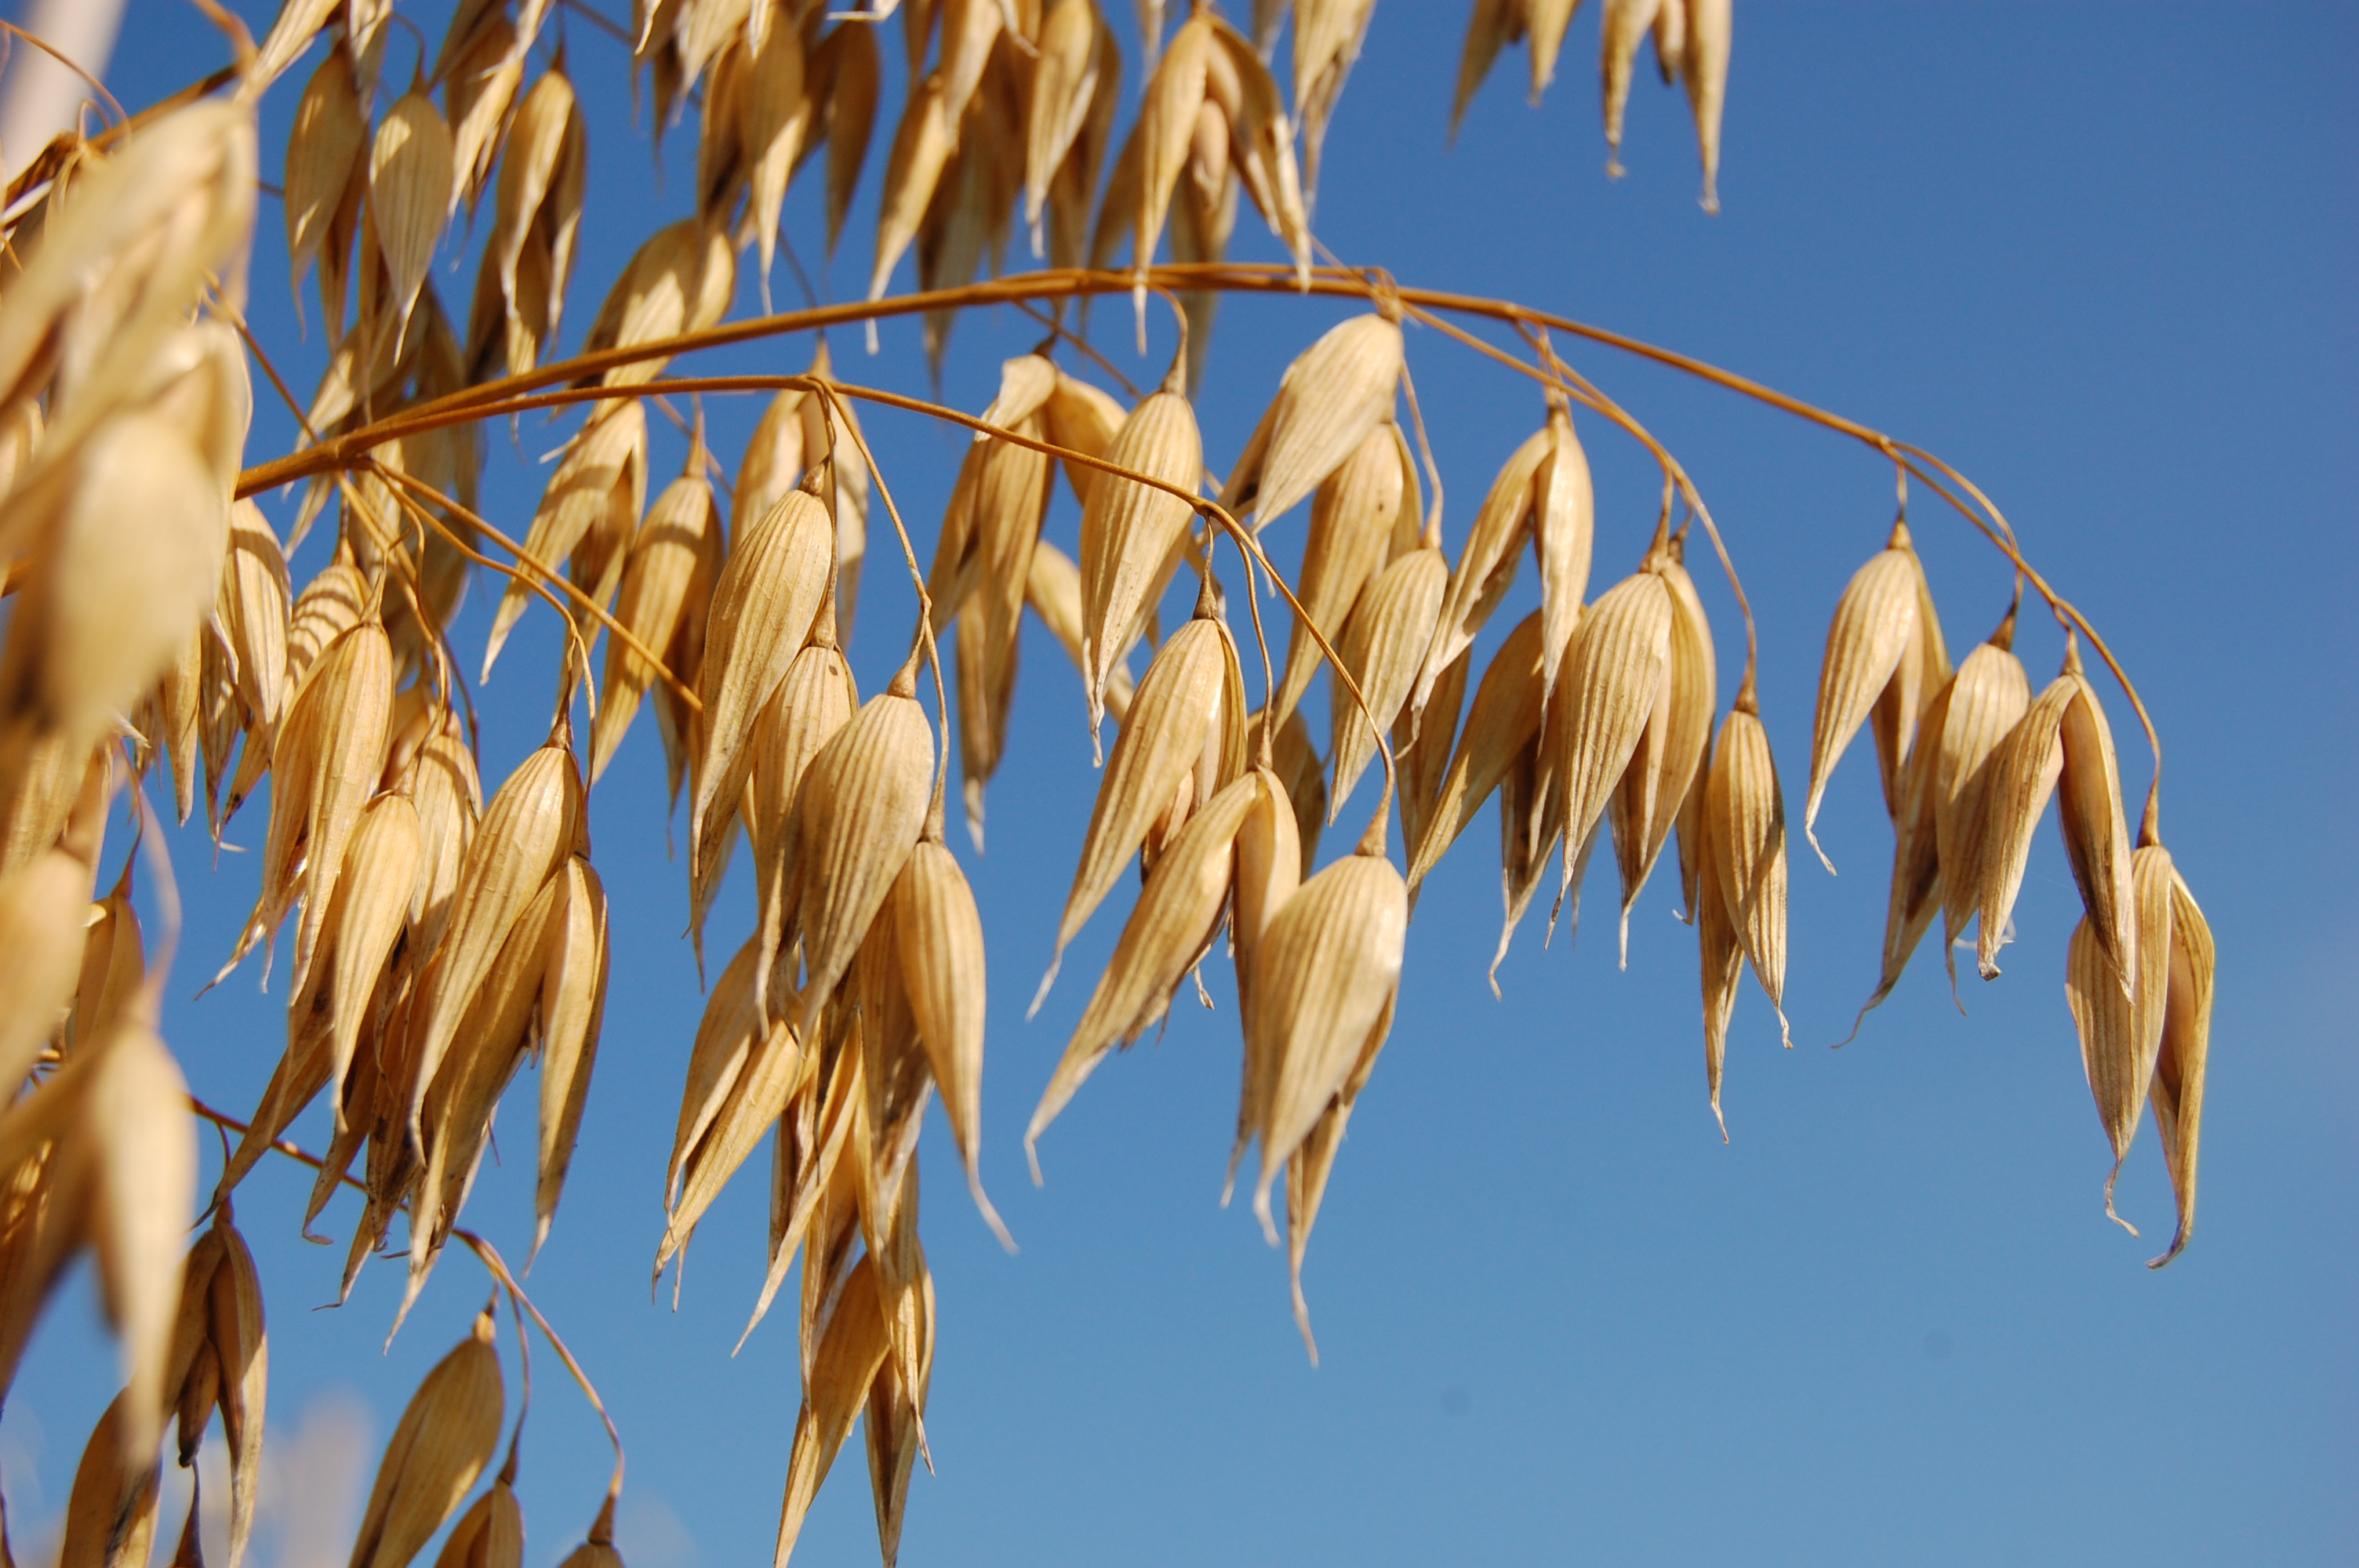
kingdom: Plantae
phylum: Tracheophyta
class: Liliopsida
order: Poales
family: Poaceae
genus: Avena
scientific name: Avena sativa
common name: Oat
